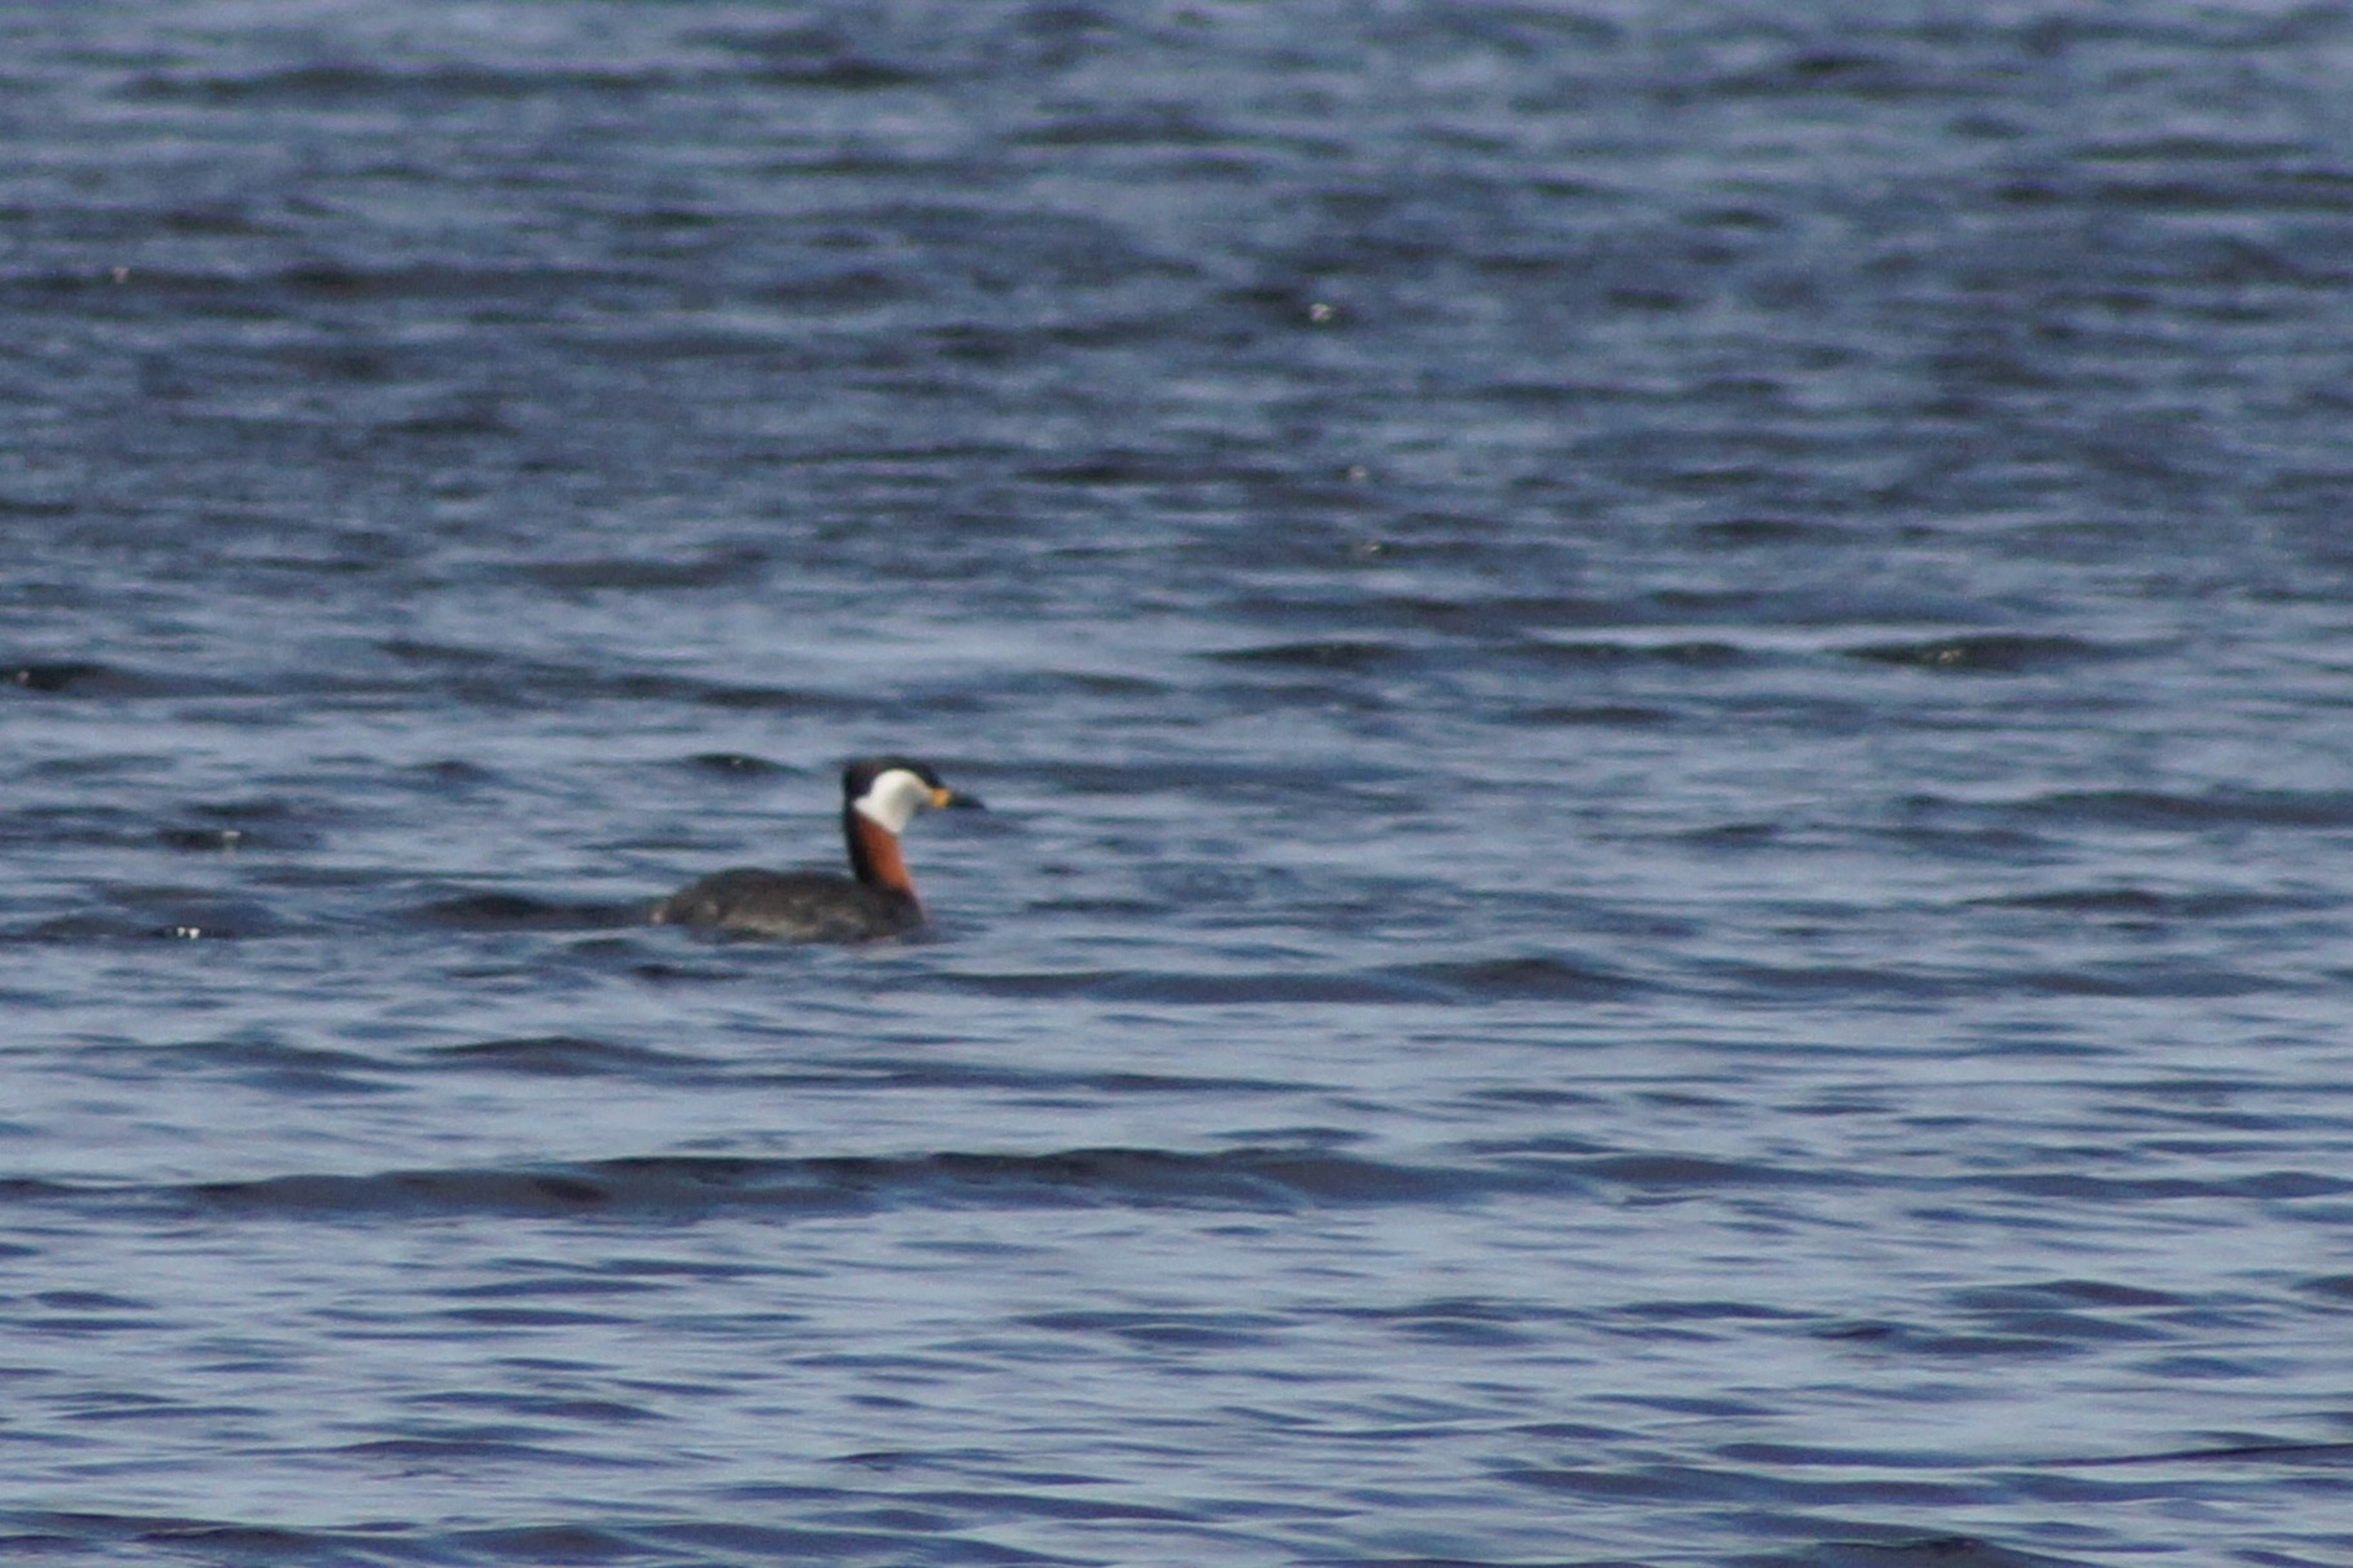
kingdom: Animalia
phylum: Chordata
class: Aves
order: Podicipediformes
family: Podicipedidae
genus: Podiceps
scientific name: Podiceps grisegena
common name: Gråstrubet lappedykker
